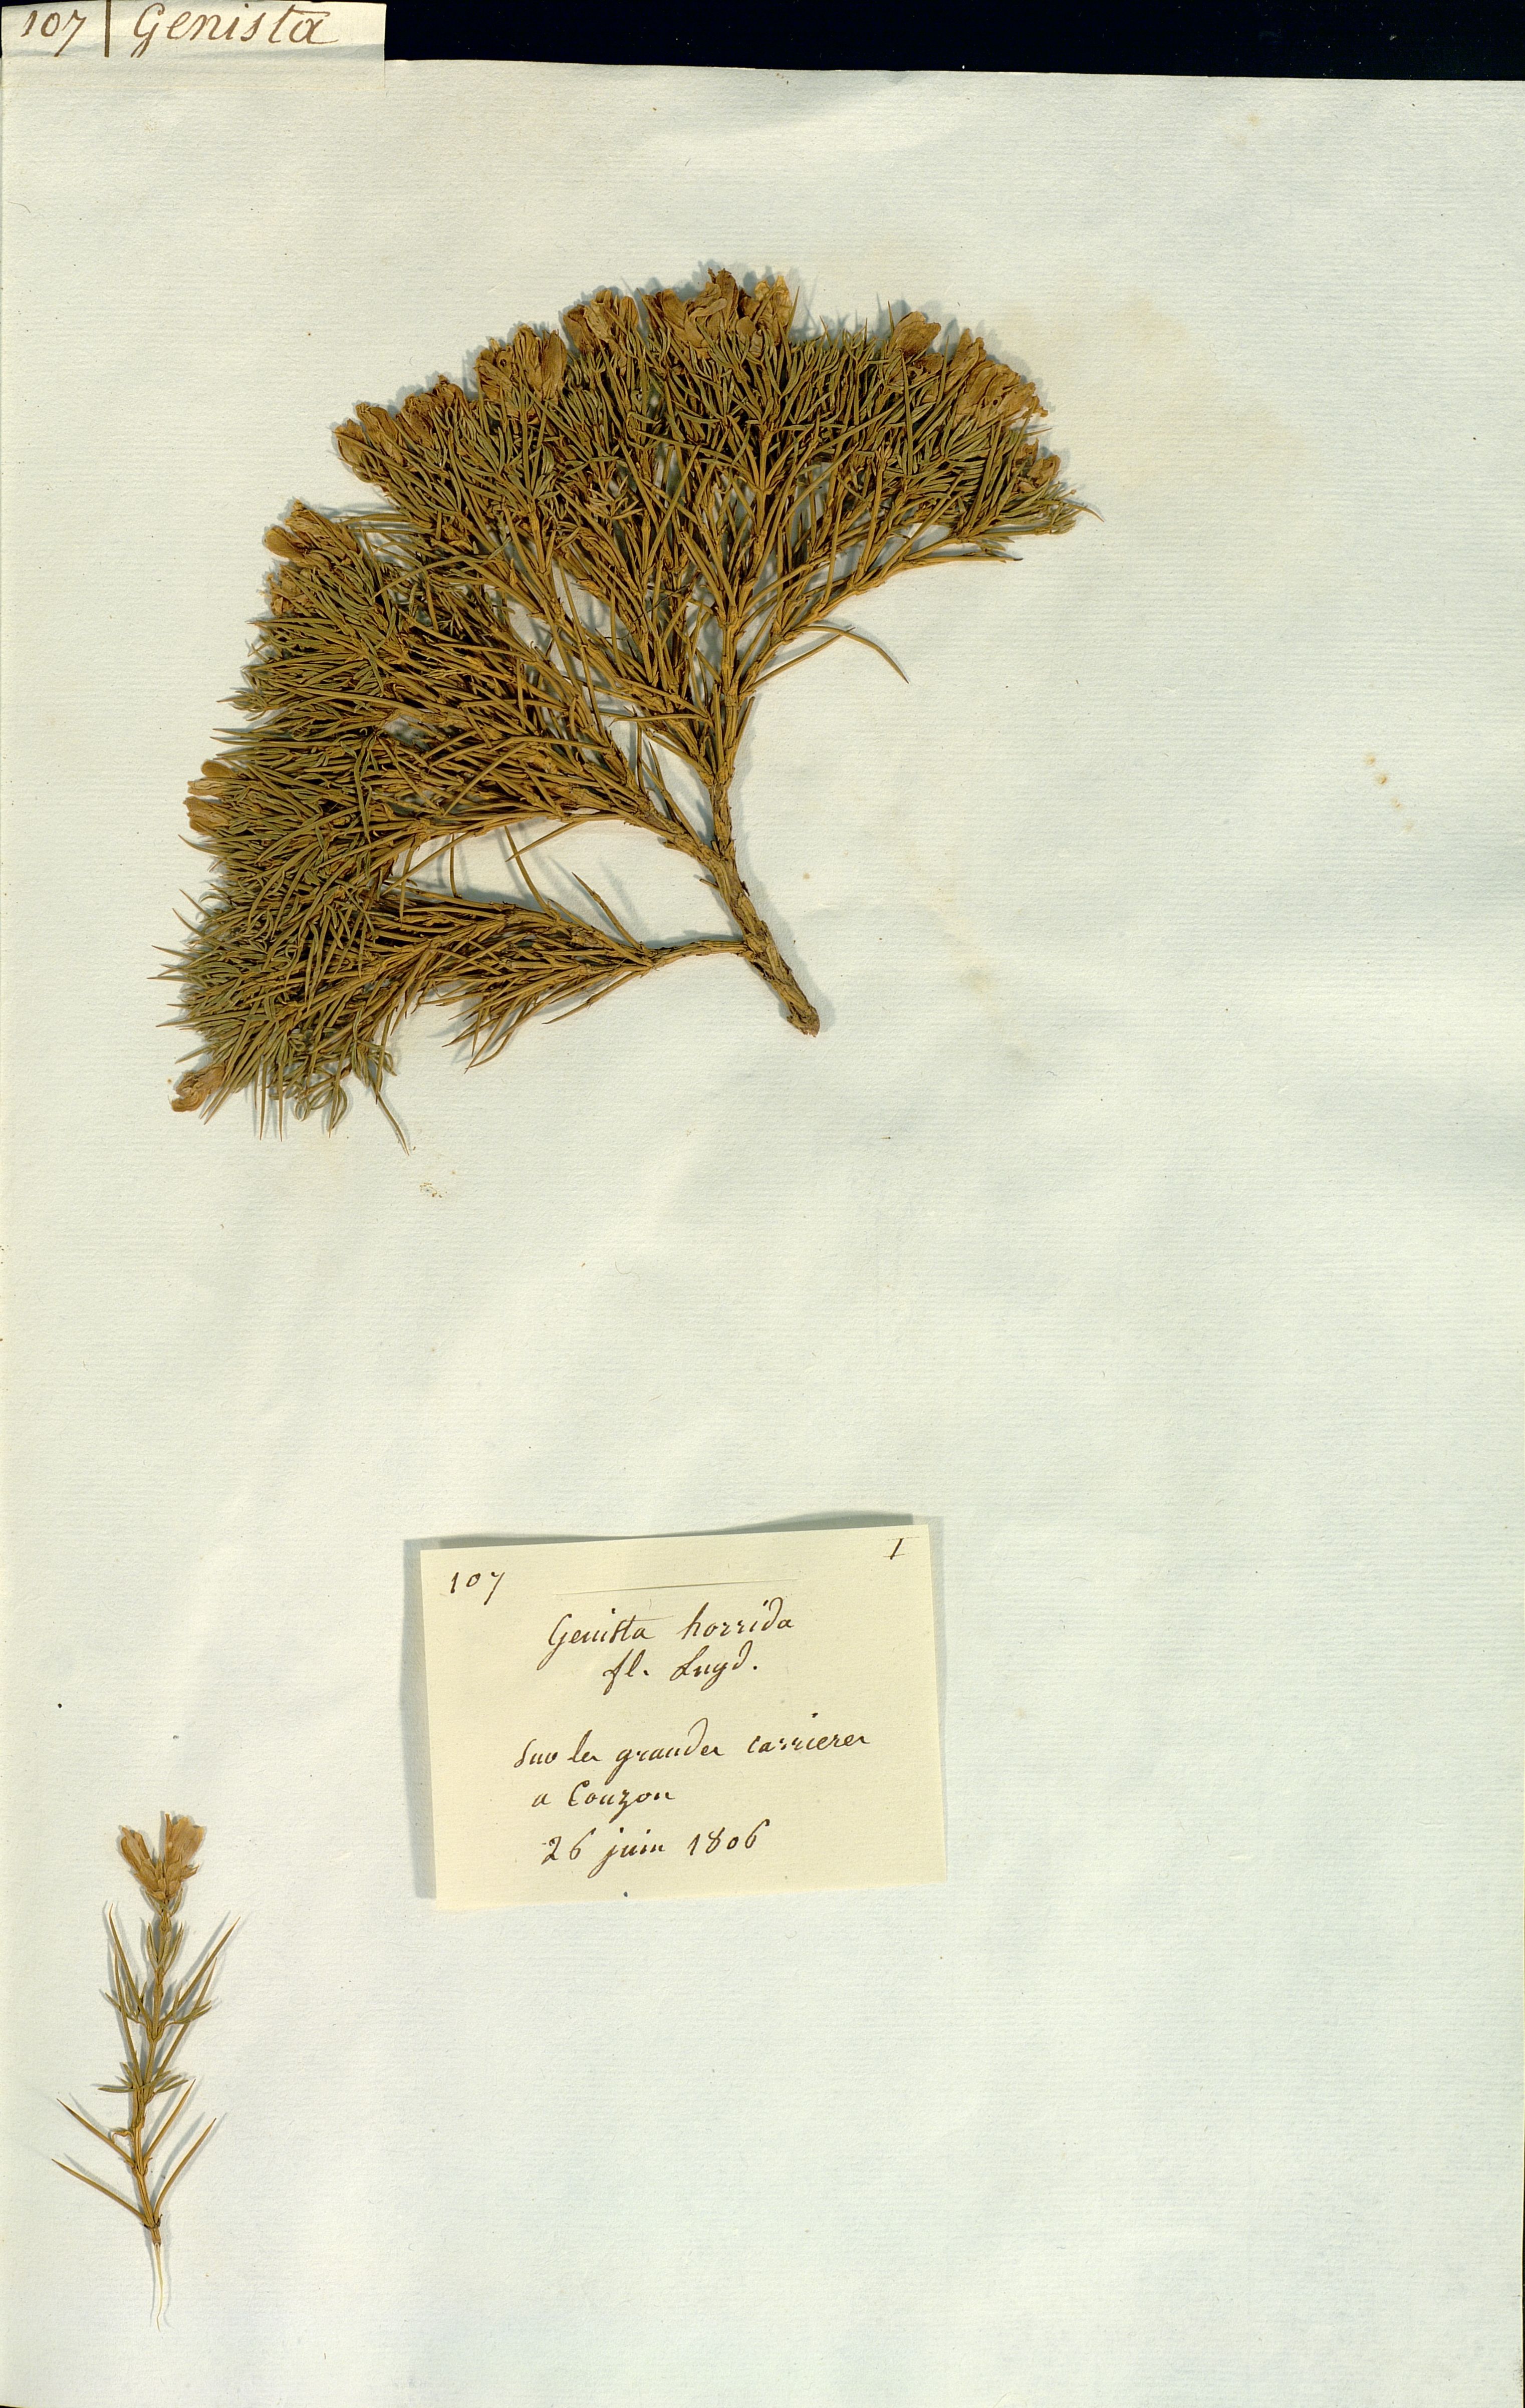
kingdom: Plantae
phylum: Tracheophyta
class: Magnoliopsida
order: Fabales
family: Fabaceae
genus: Genista
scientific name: Genista horrida
